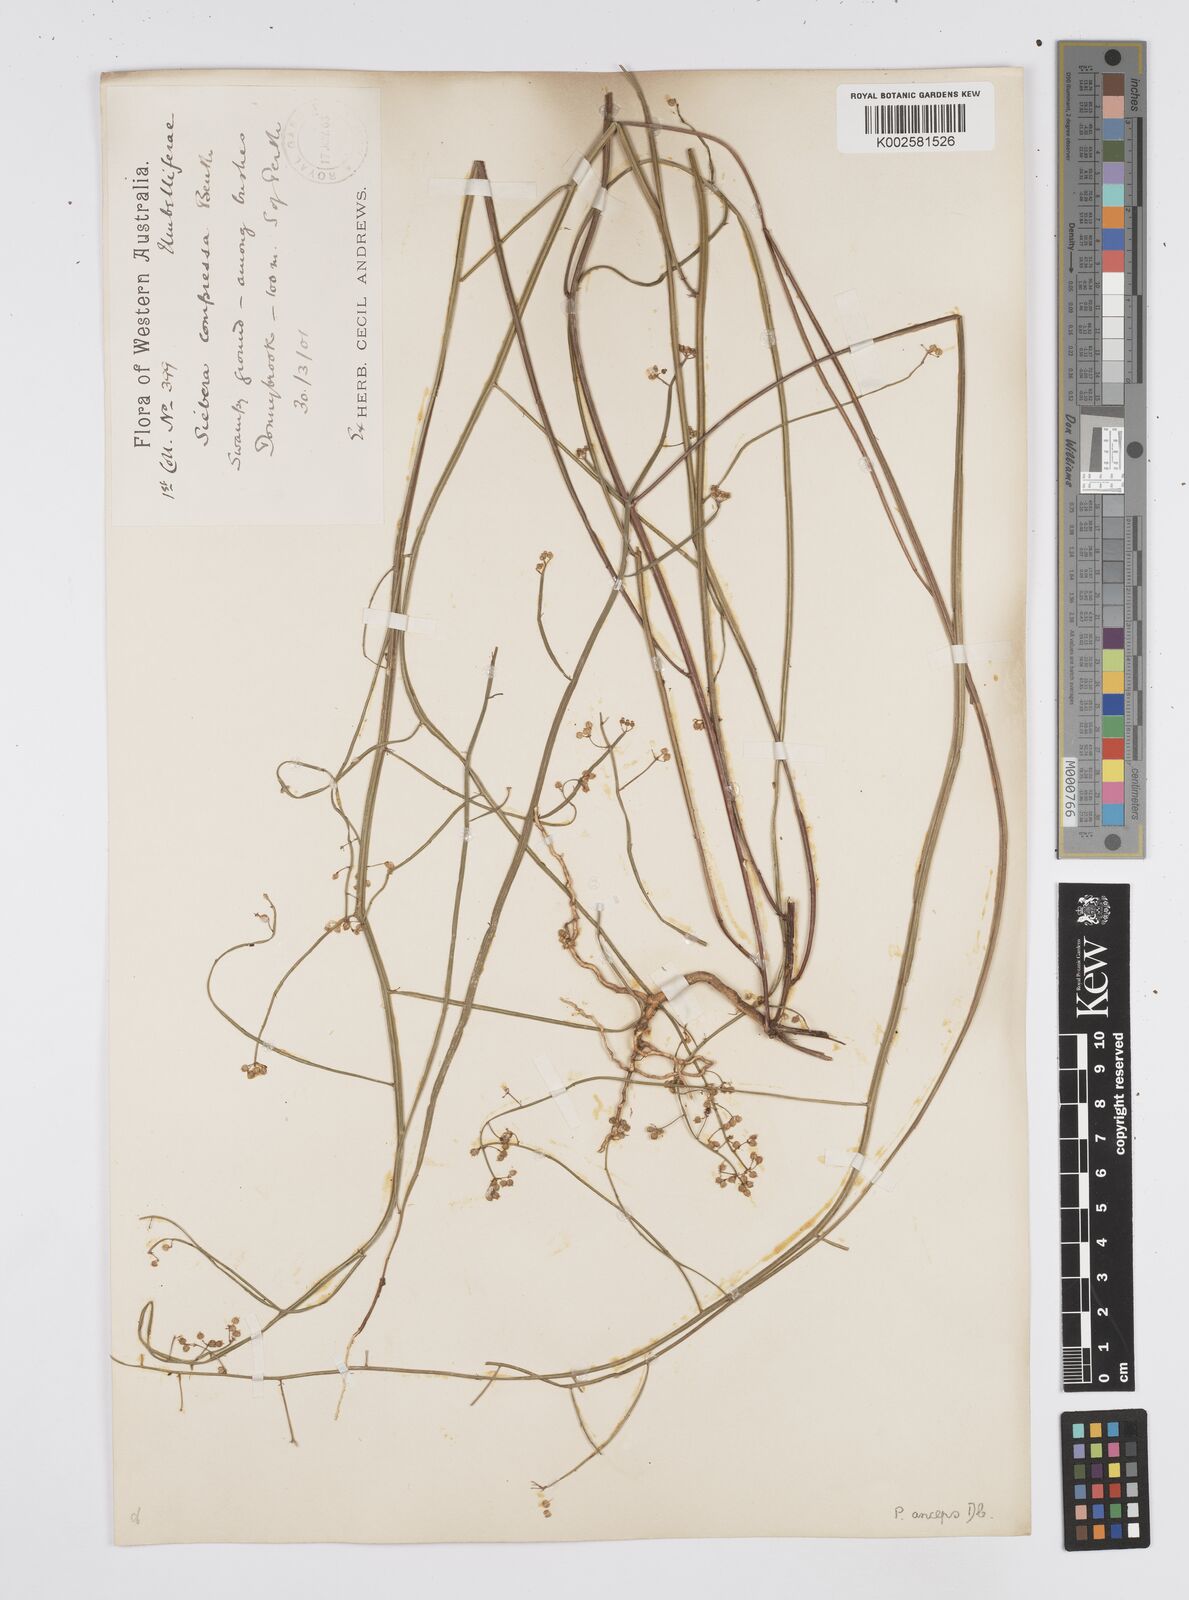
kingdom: Plantae
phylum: Tracheophyta
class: Magnoliopsida
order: Apiales
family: Apiaceae
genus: Centella
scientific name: Centella
